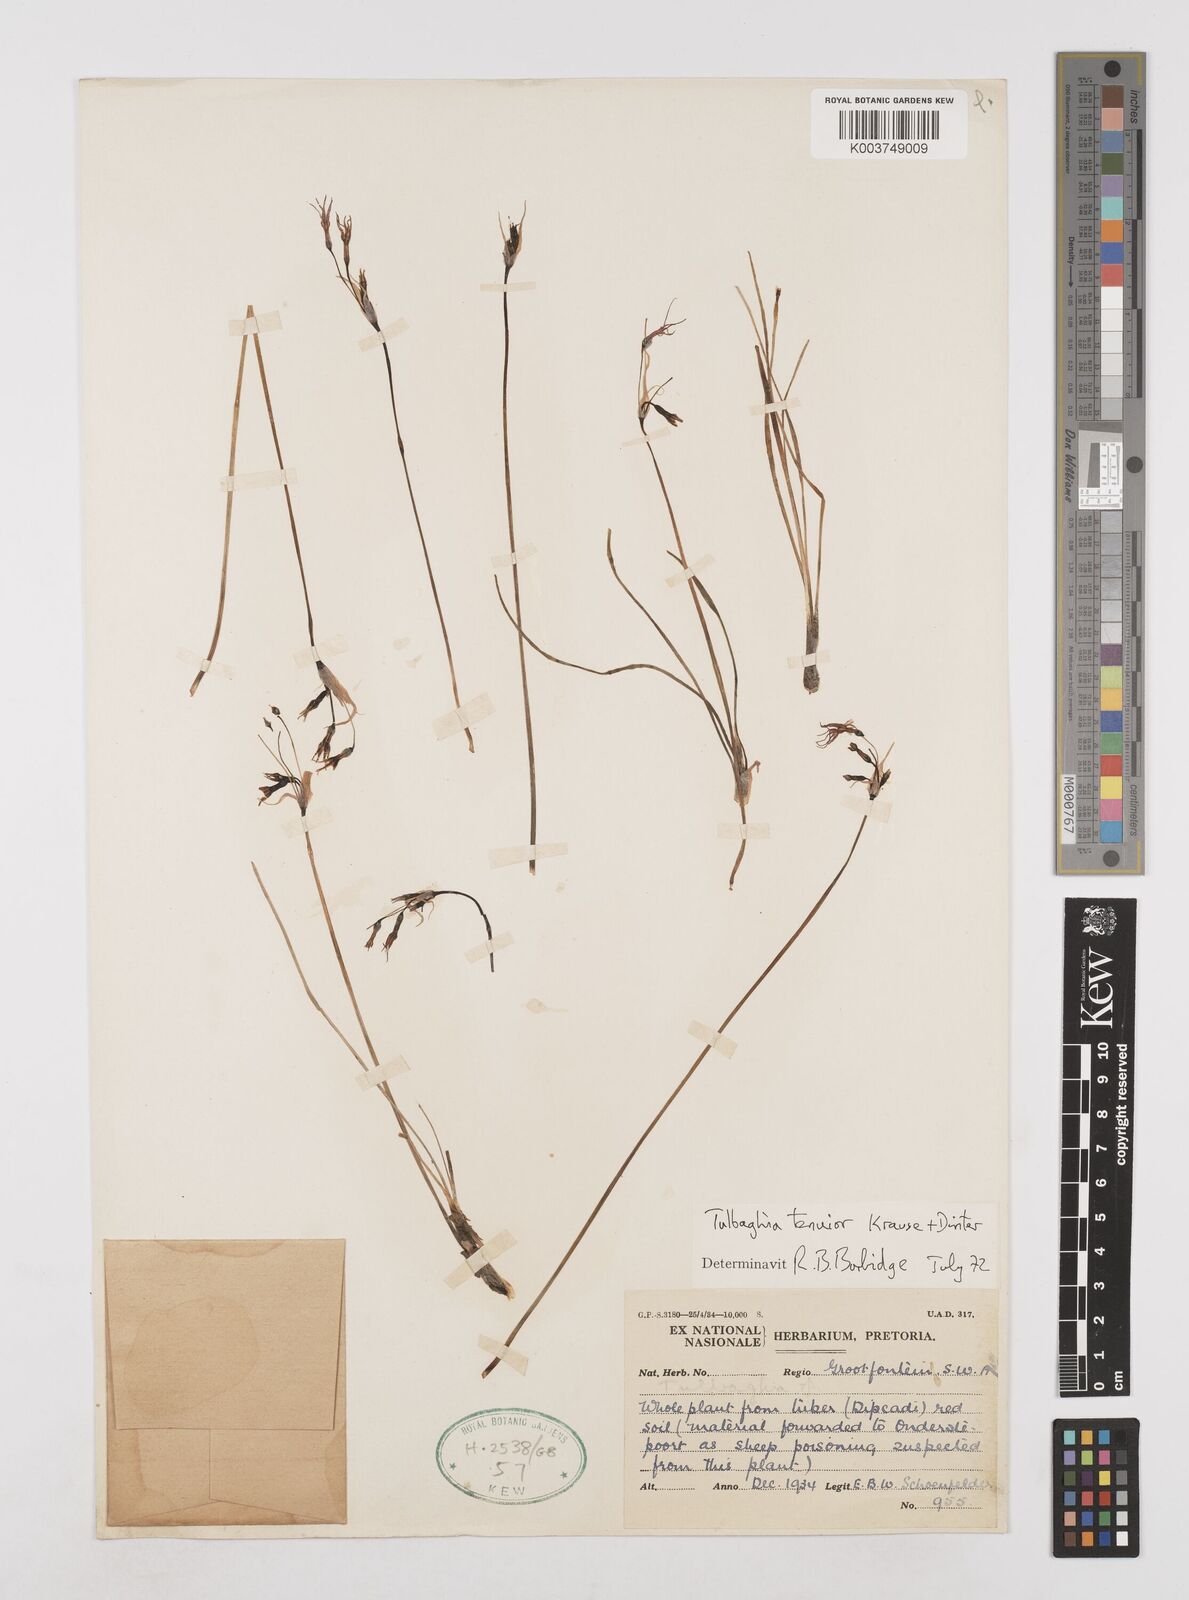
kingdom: Plantae
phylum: Tracheophyta
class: Liliopsida
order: Asparagales
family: Amaryllidaceae
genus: Tulbaghia
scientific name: Tulbaghia tenuior
